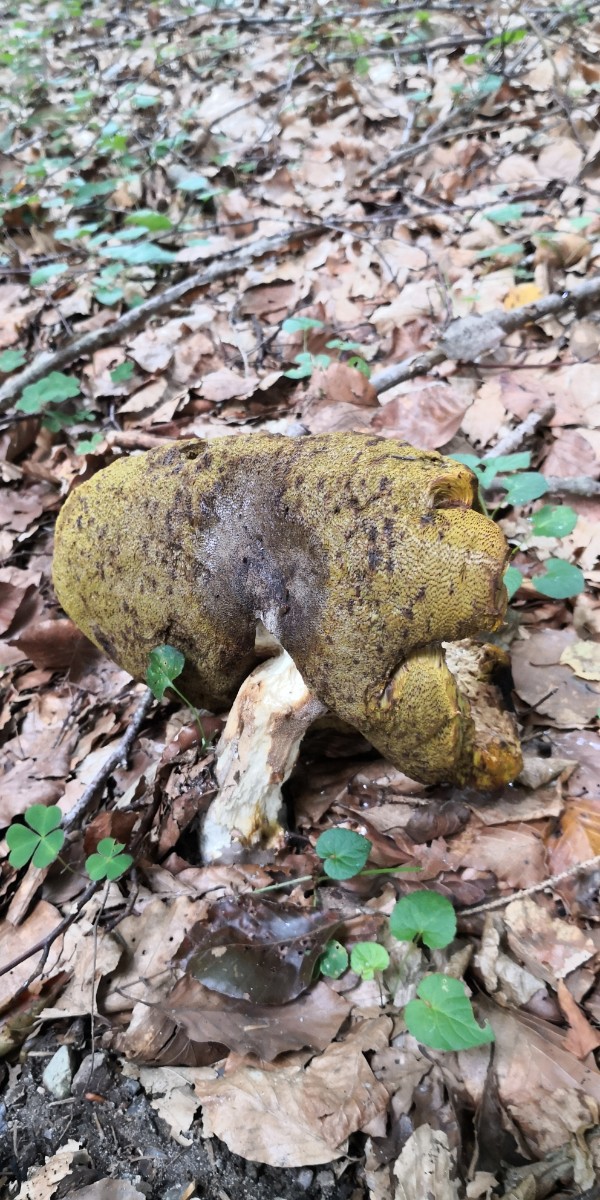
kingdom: Fungi
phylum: Basidiomycota
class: Agaricomycetes
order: Boletales
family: Boletaceae
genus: Boletus
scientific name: Boletus edulis
